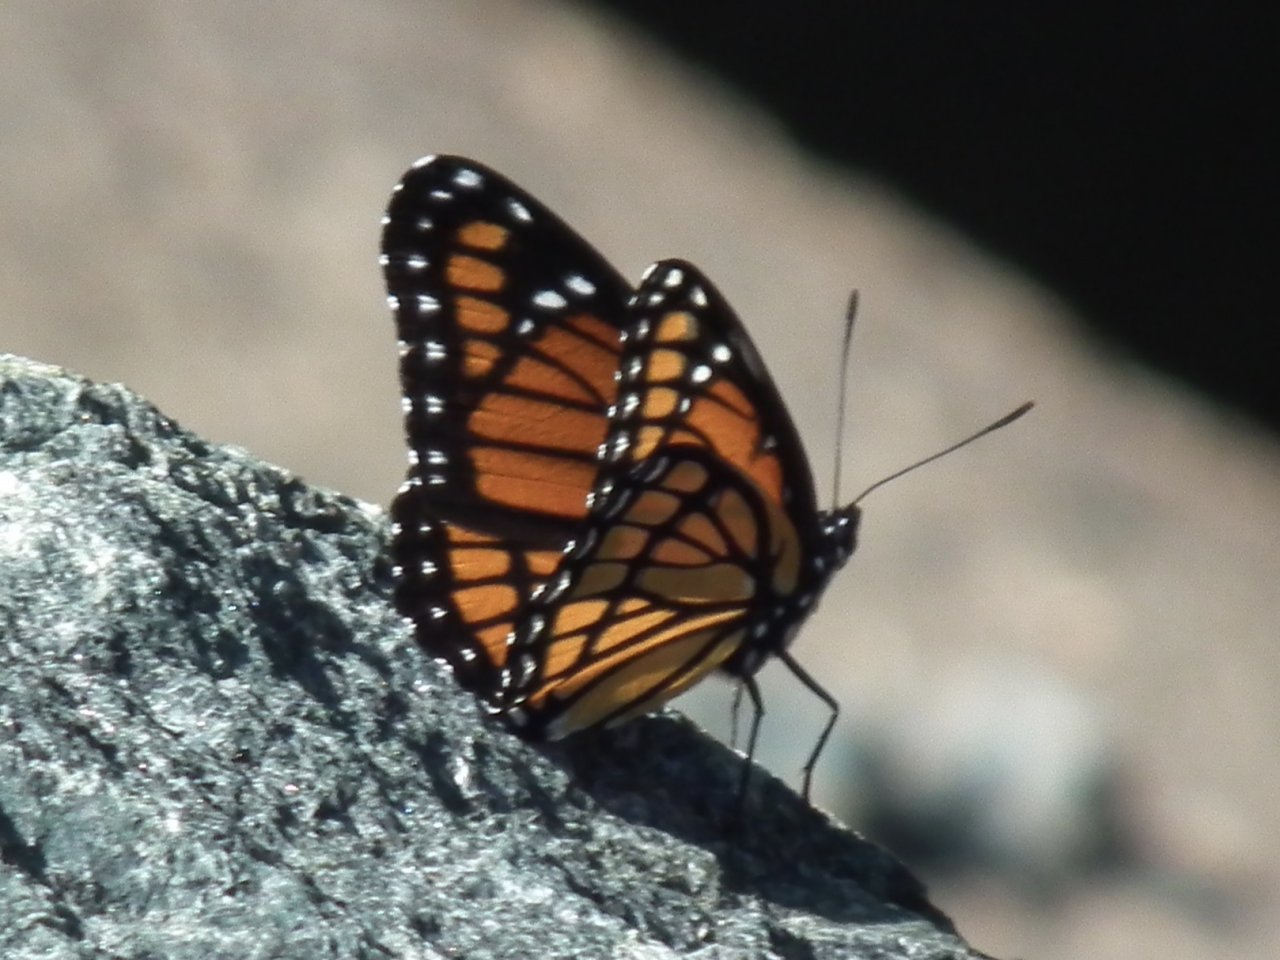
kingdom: Animalia
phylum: Arthropoda
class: Insecta
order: Lepidoptera
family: Nymphalidae
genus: Limenitis
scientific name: Limenitis archippus
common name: Viceroy
